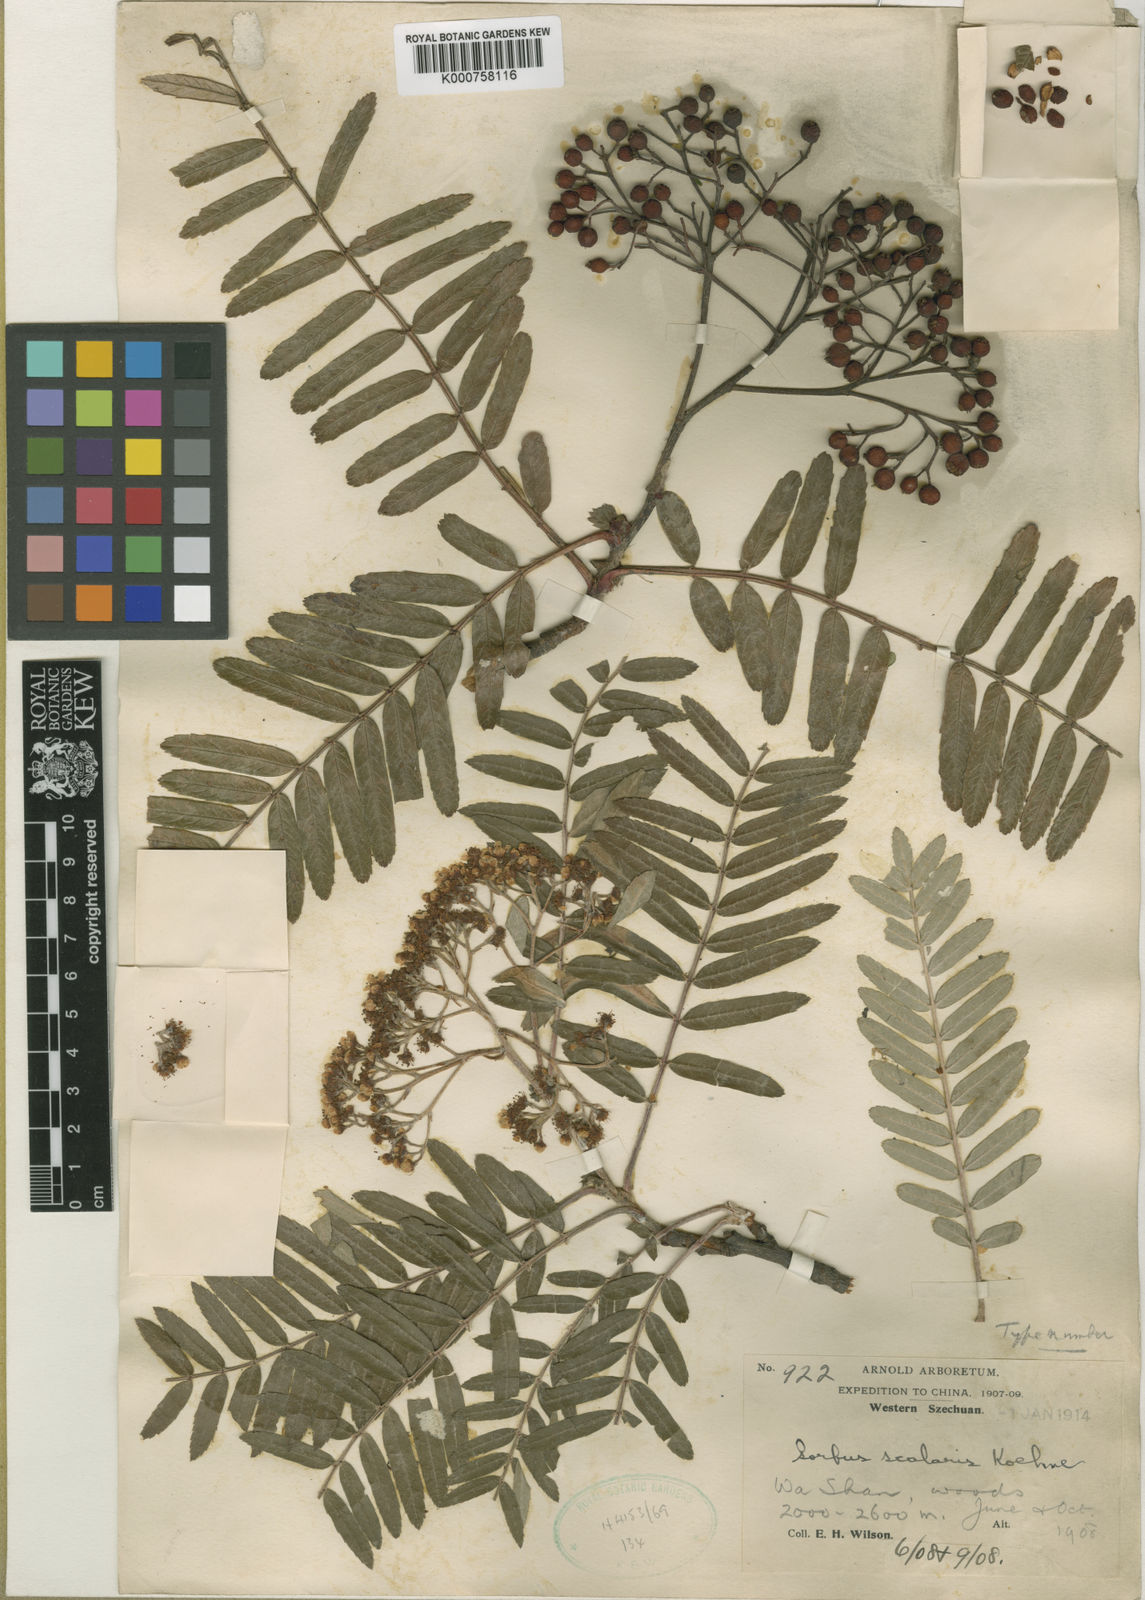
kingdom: Plantae
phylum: Tracheophyta
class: Magnoliopsida
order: Rosales
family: Rosaceae
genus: Sorbus
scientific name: Sorbus scalaris
